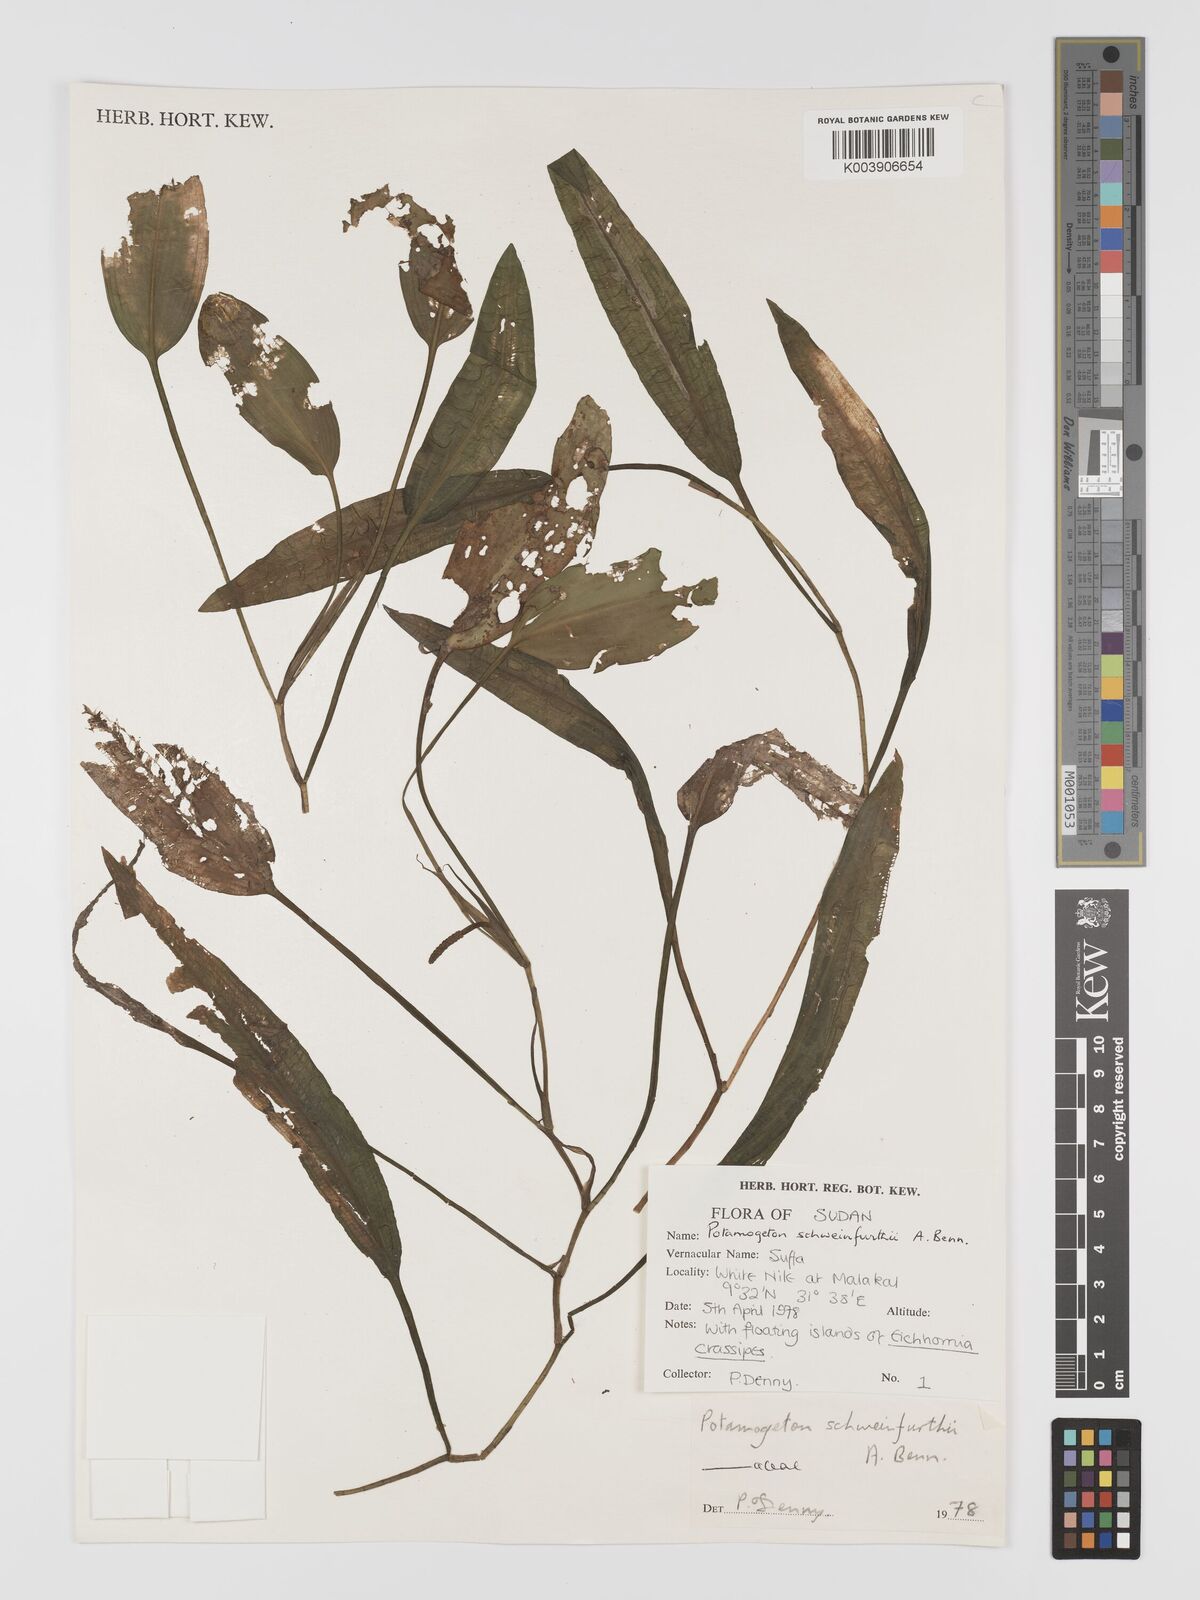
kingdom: Plantae
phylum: Tracheophyta
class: Liliopsida
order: Alismatales
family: Potamogetonaceae
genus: Potamogeton
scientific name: Potamogeton nodosus
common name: Loddon pondweed
